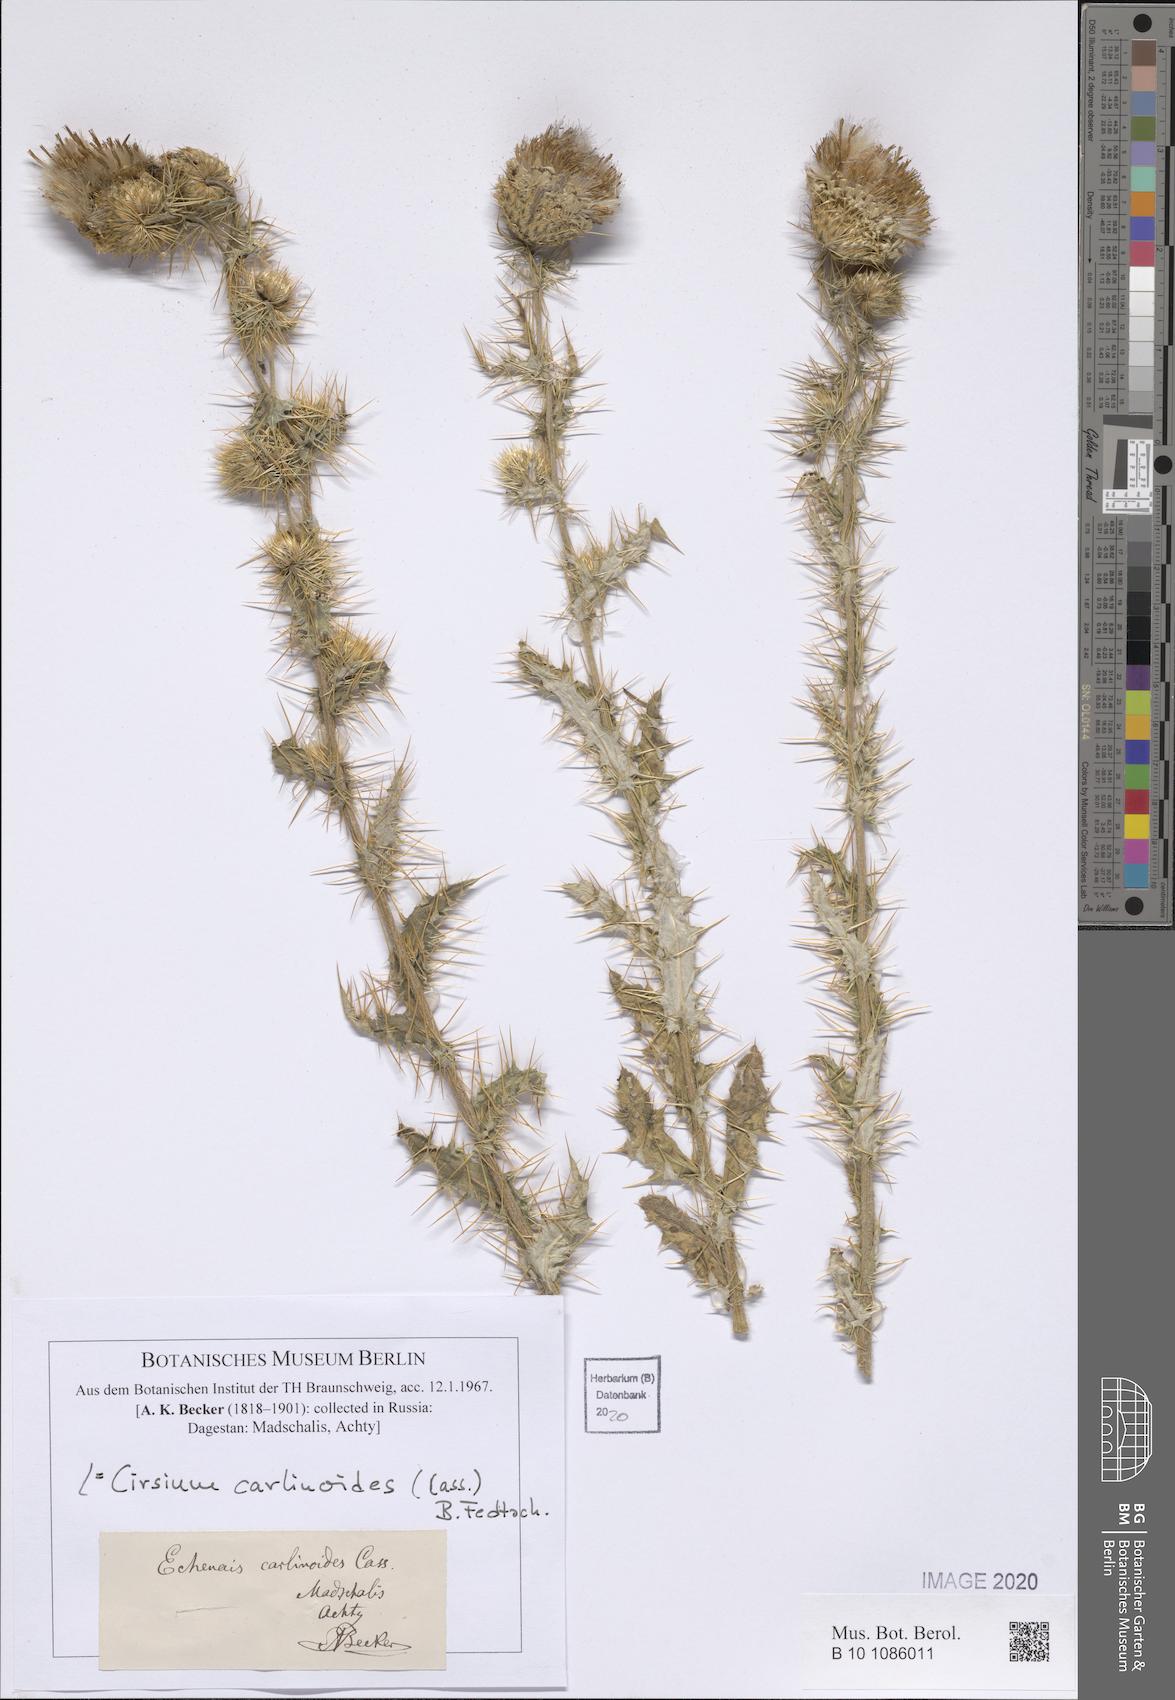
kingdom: Plantae
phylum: Tracheophyta
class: Magnoliopsida
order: Asterales
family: Asteraceae
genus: Cirsium
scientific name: Cirsium echinus
